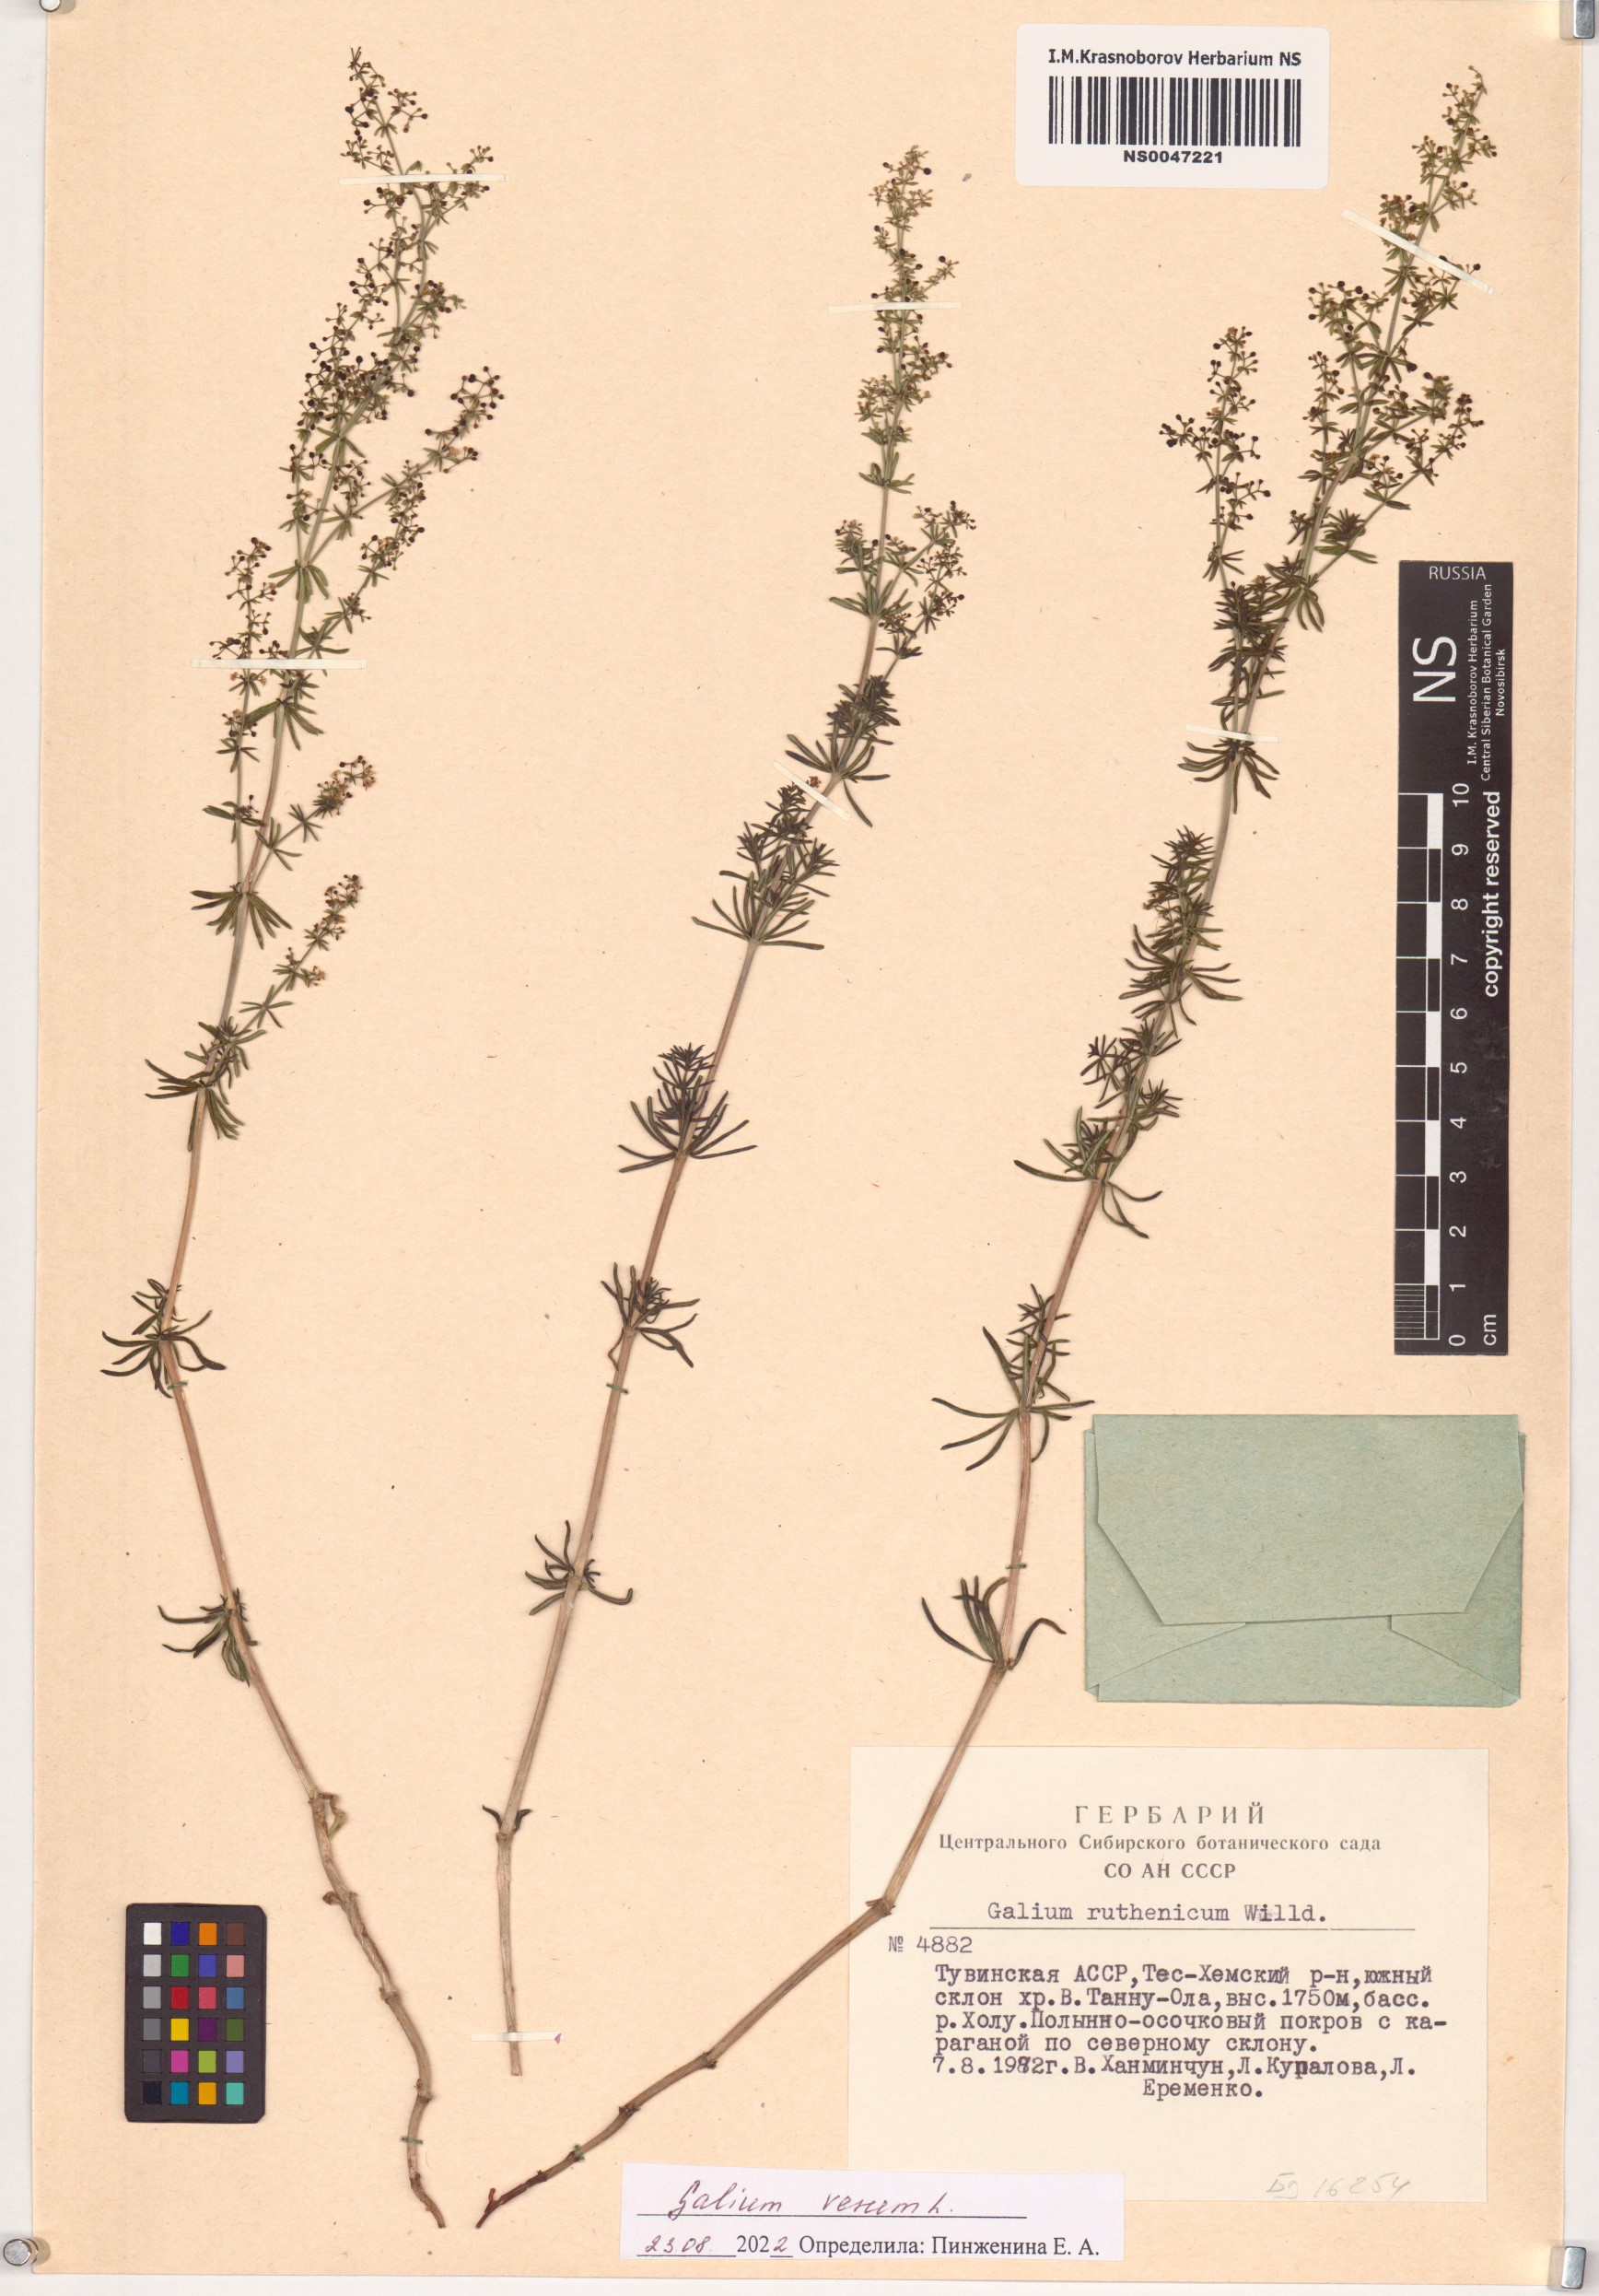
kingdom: Plantae
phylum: Tracheophyta
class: Magnoliopsida
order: Gentianales
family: Rubiaceae
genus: Galium
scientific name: Galium verum
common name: Lady's bedstraw
